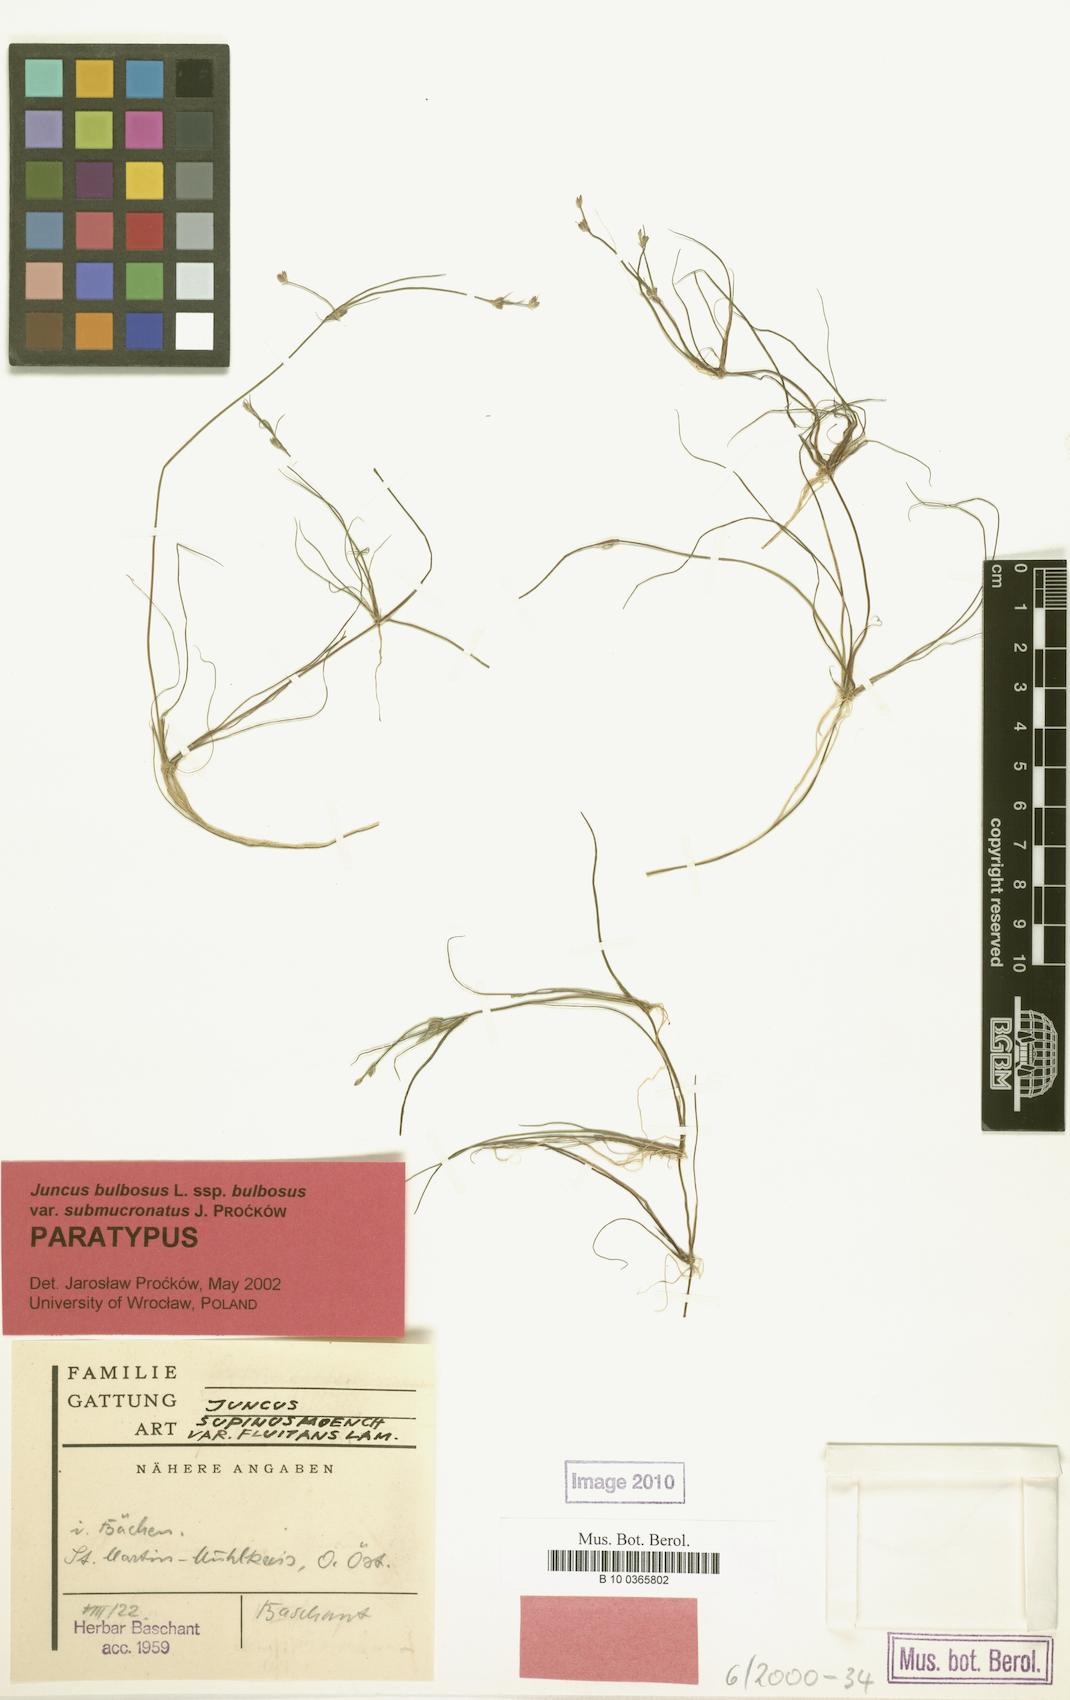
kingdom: Plantae
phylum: Tracheophyta
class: Liliopsida
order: Poales
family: Juncaceae
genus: Juncus
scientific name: Juncus bulbosus
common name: Bulbous rush
